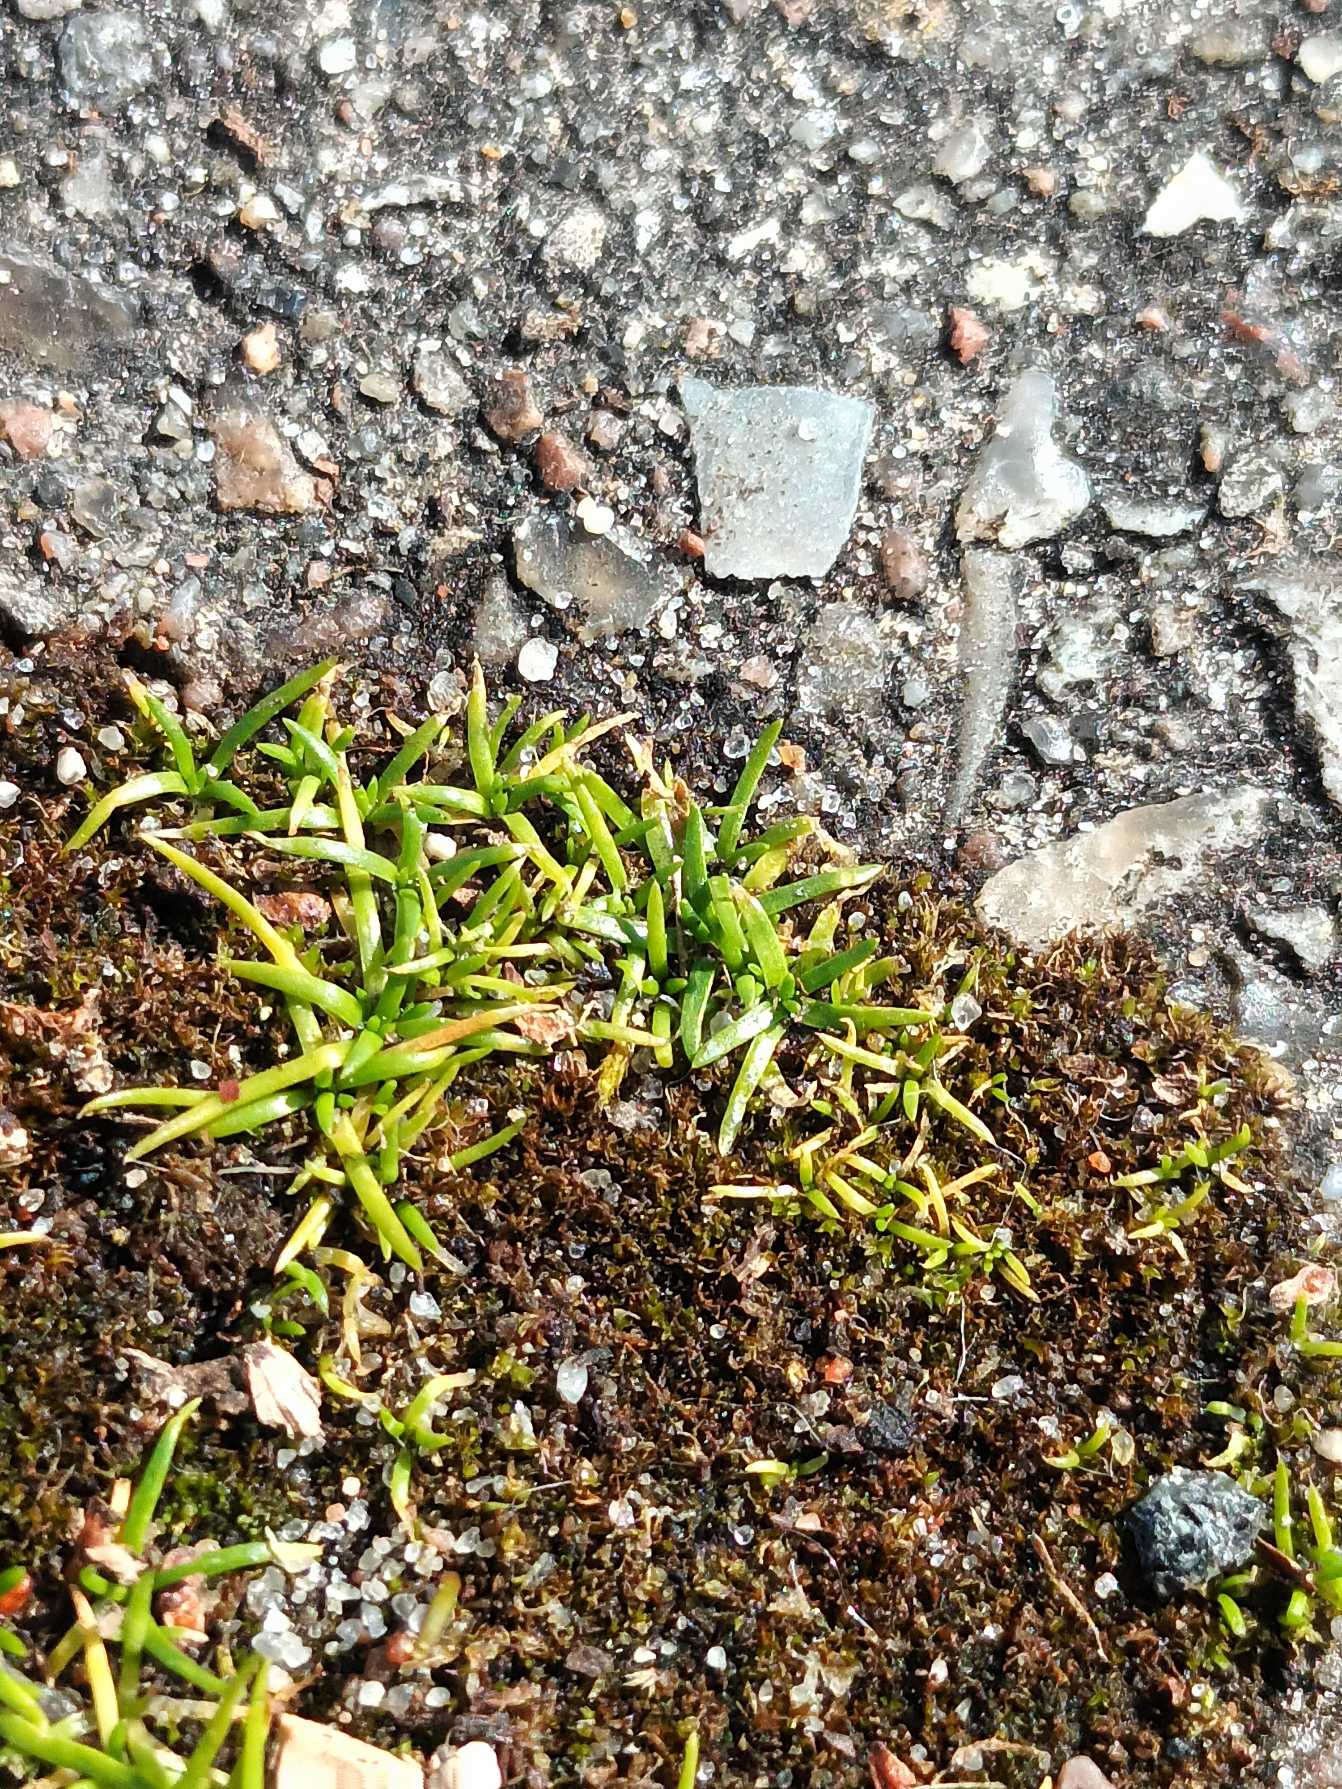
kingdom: Plantae
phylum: Tracheophyta
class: Magnoliopsida
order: Caryophyllales
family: Caryophyllaceae
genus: Sagina
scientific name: Sagina procumbens
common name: Almindelig firling
